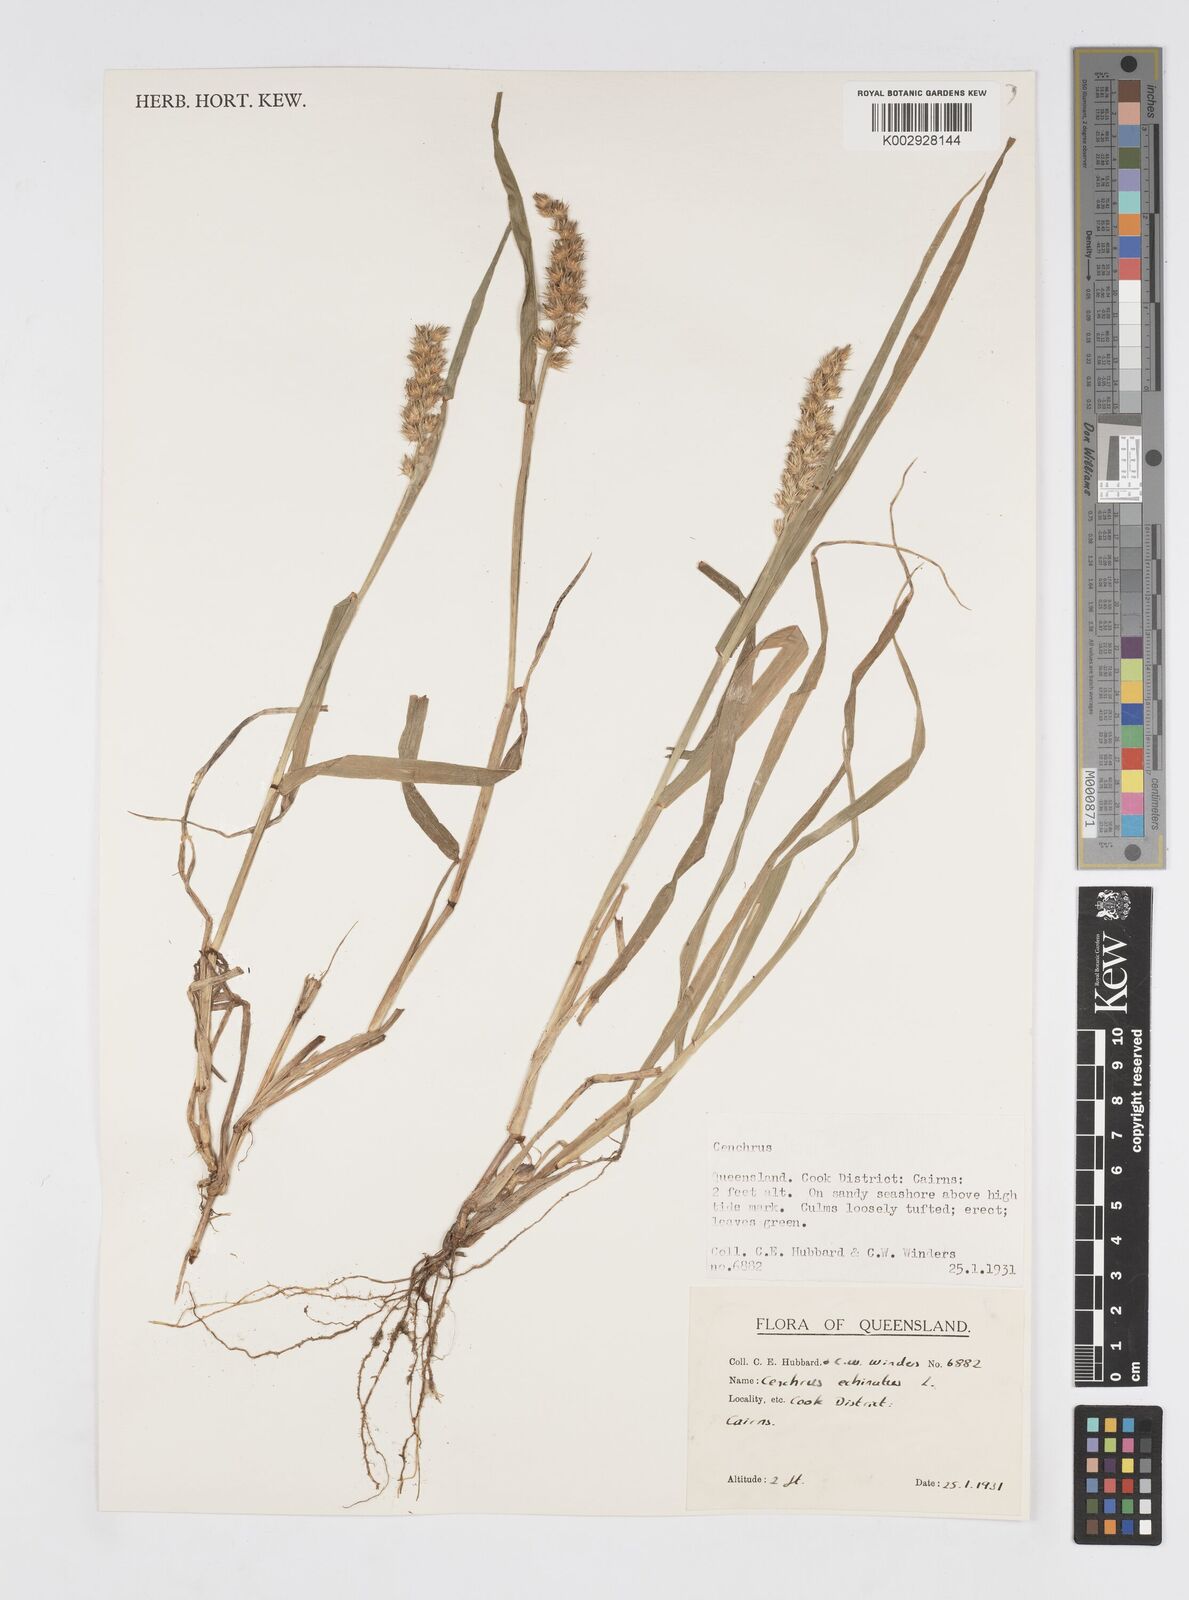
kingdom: Plantae
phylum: Tracheophyta
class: Liliopsida
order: Poales
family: Poaceae
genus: Cenchrus
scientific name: Cenchrus echinatus
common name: Southern sandbur
